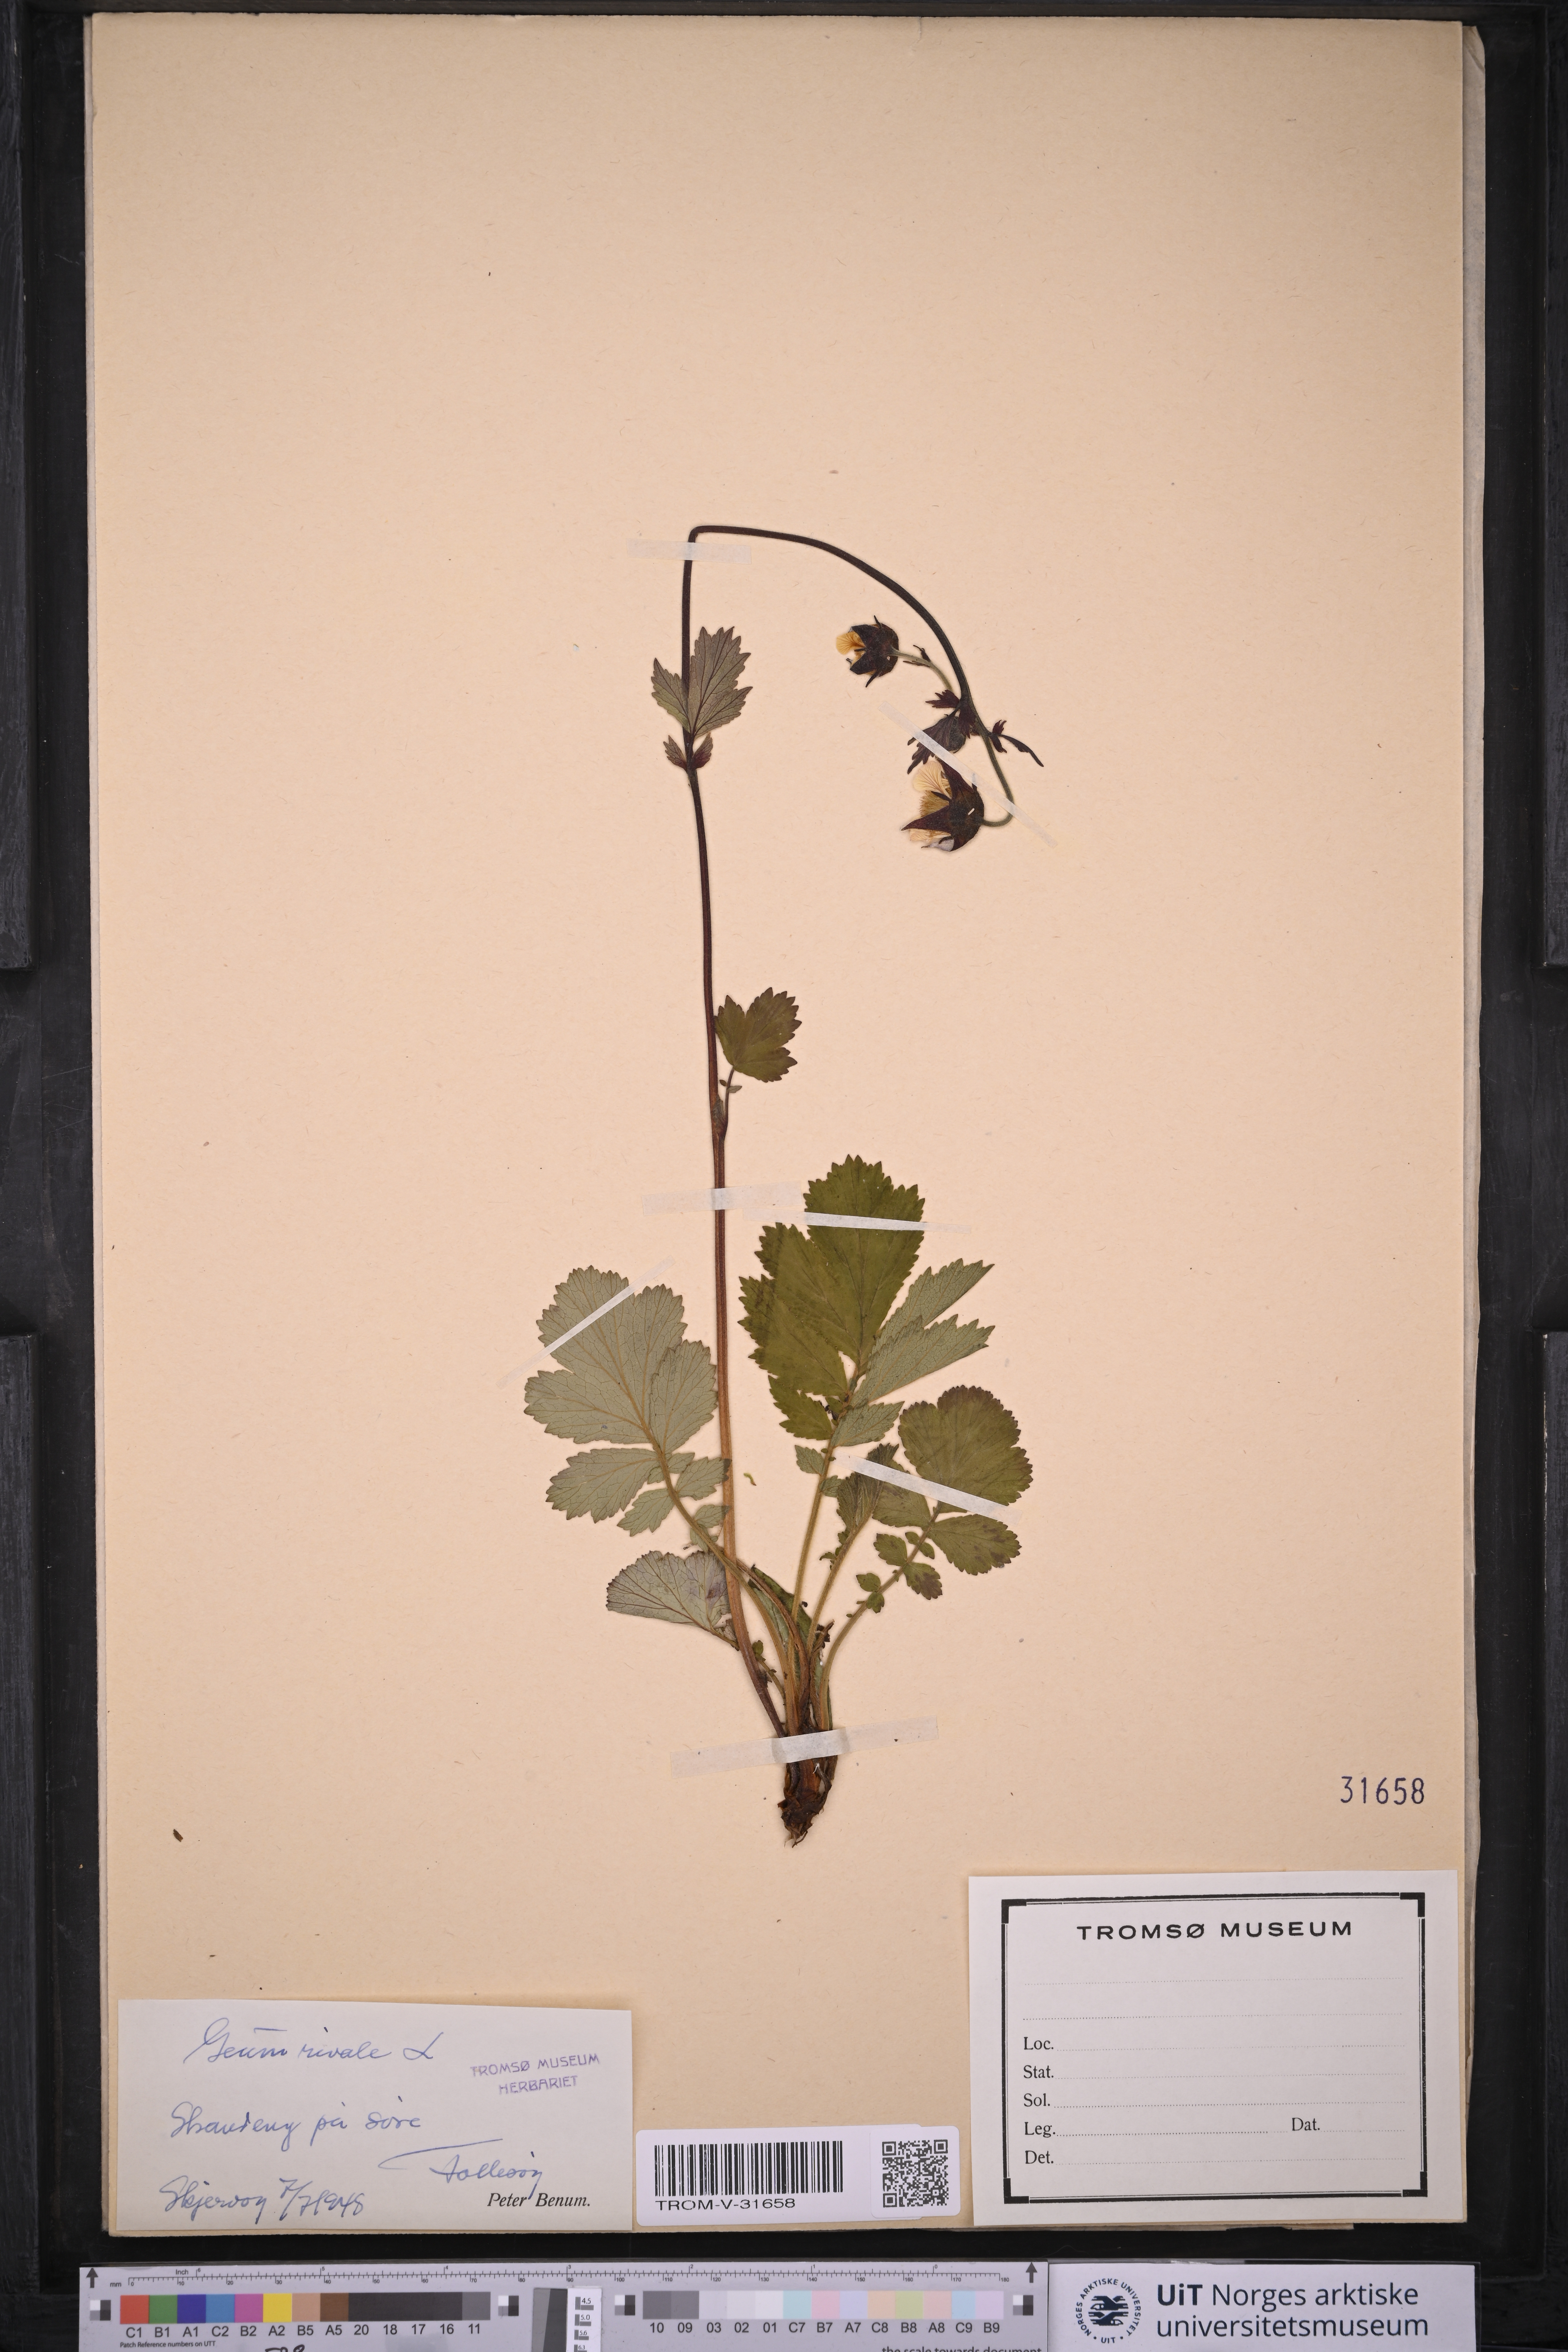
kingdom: Plantae
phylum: Tracheophyta
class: Magnoliopsida
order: Rosales
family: Rosaceae
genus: Geum
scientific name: Geum rivale
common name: Water avens
